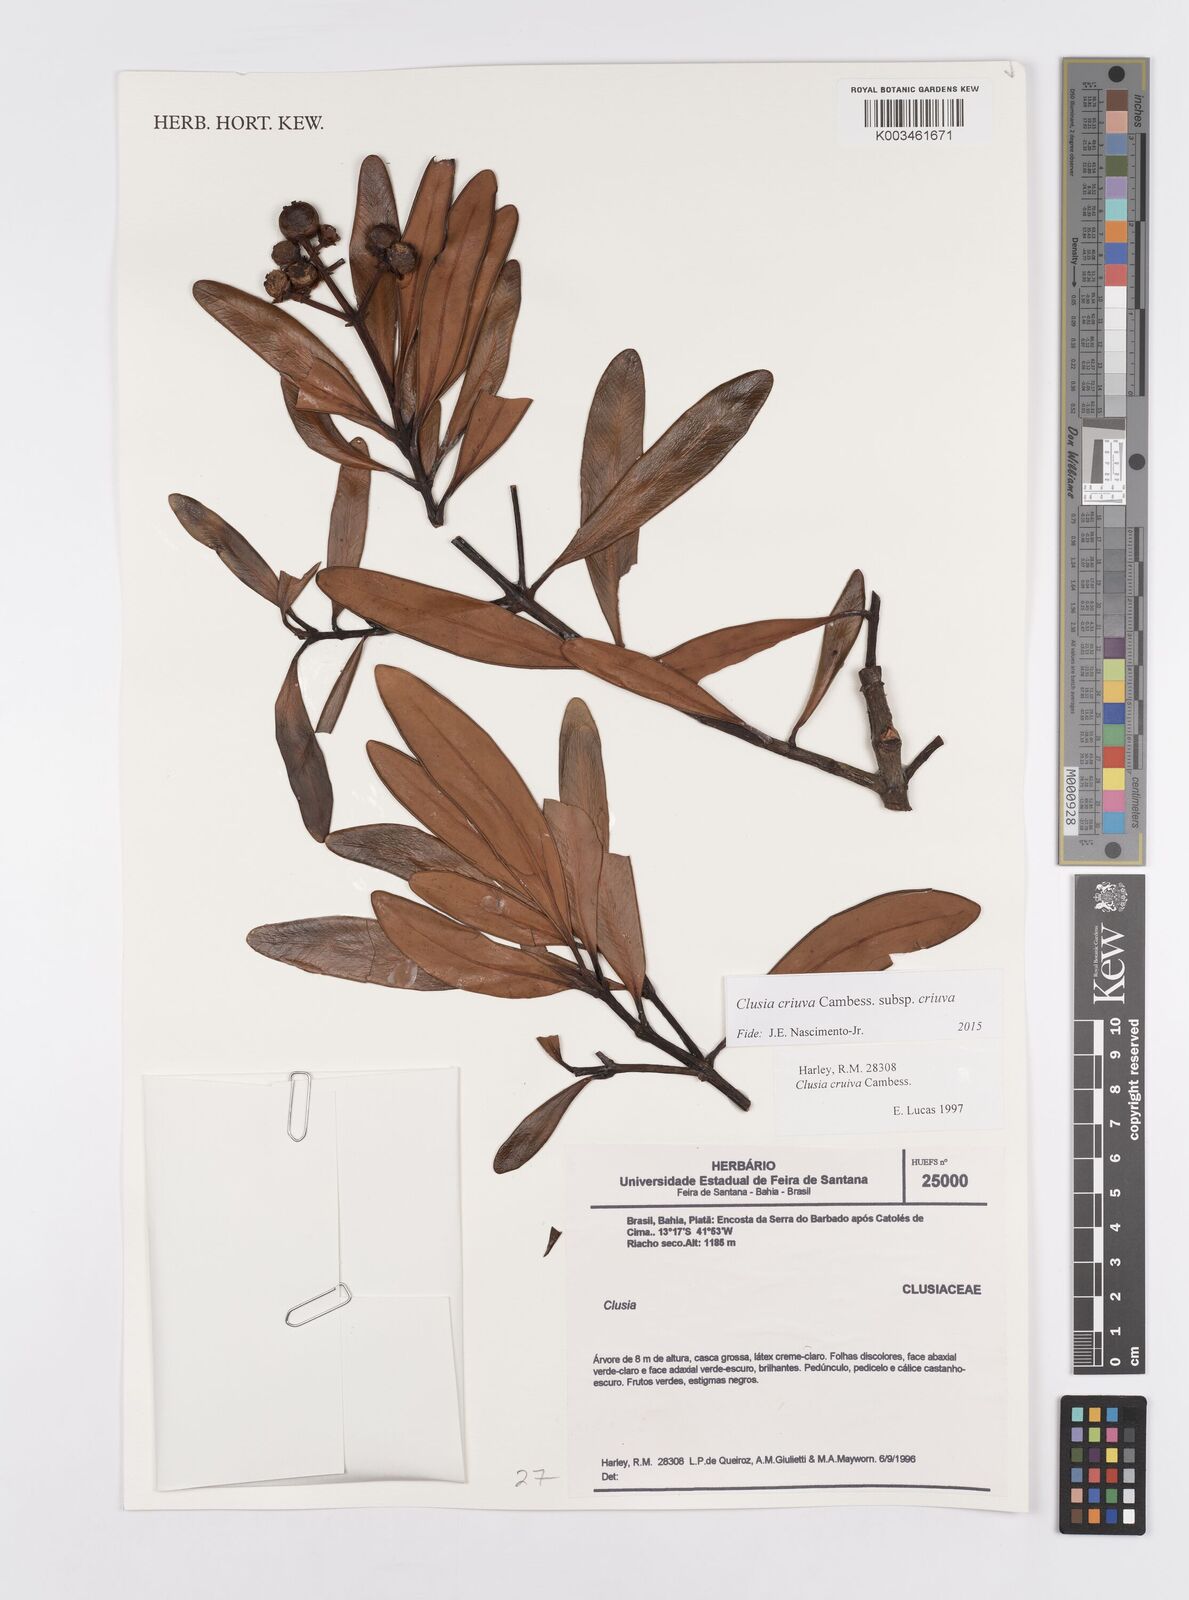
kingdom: Plantae
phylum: Tracheophyta
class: Magnoliopsida
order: Malpighiales
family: Clusiaceae
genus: Clusia
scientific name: Clusia criuva
